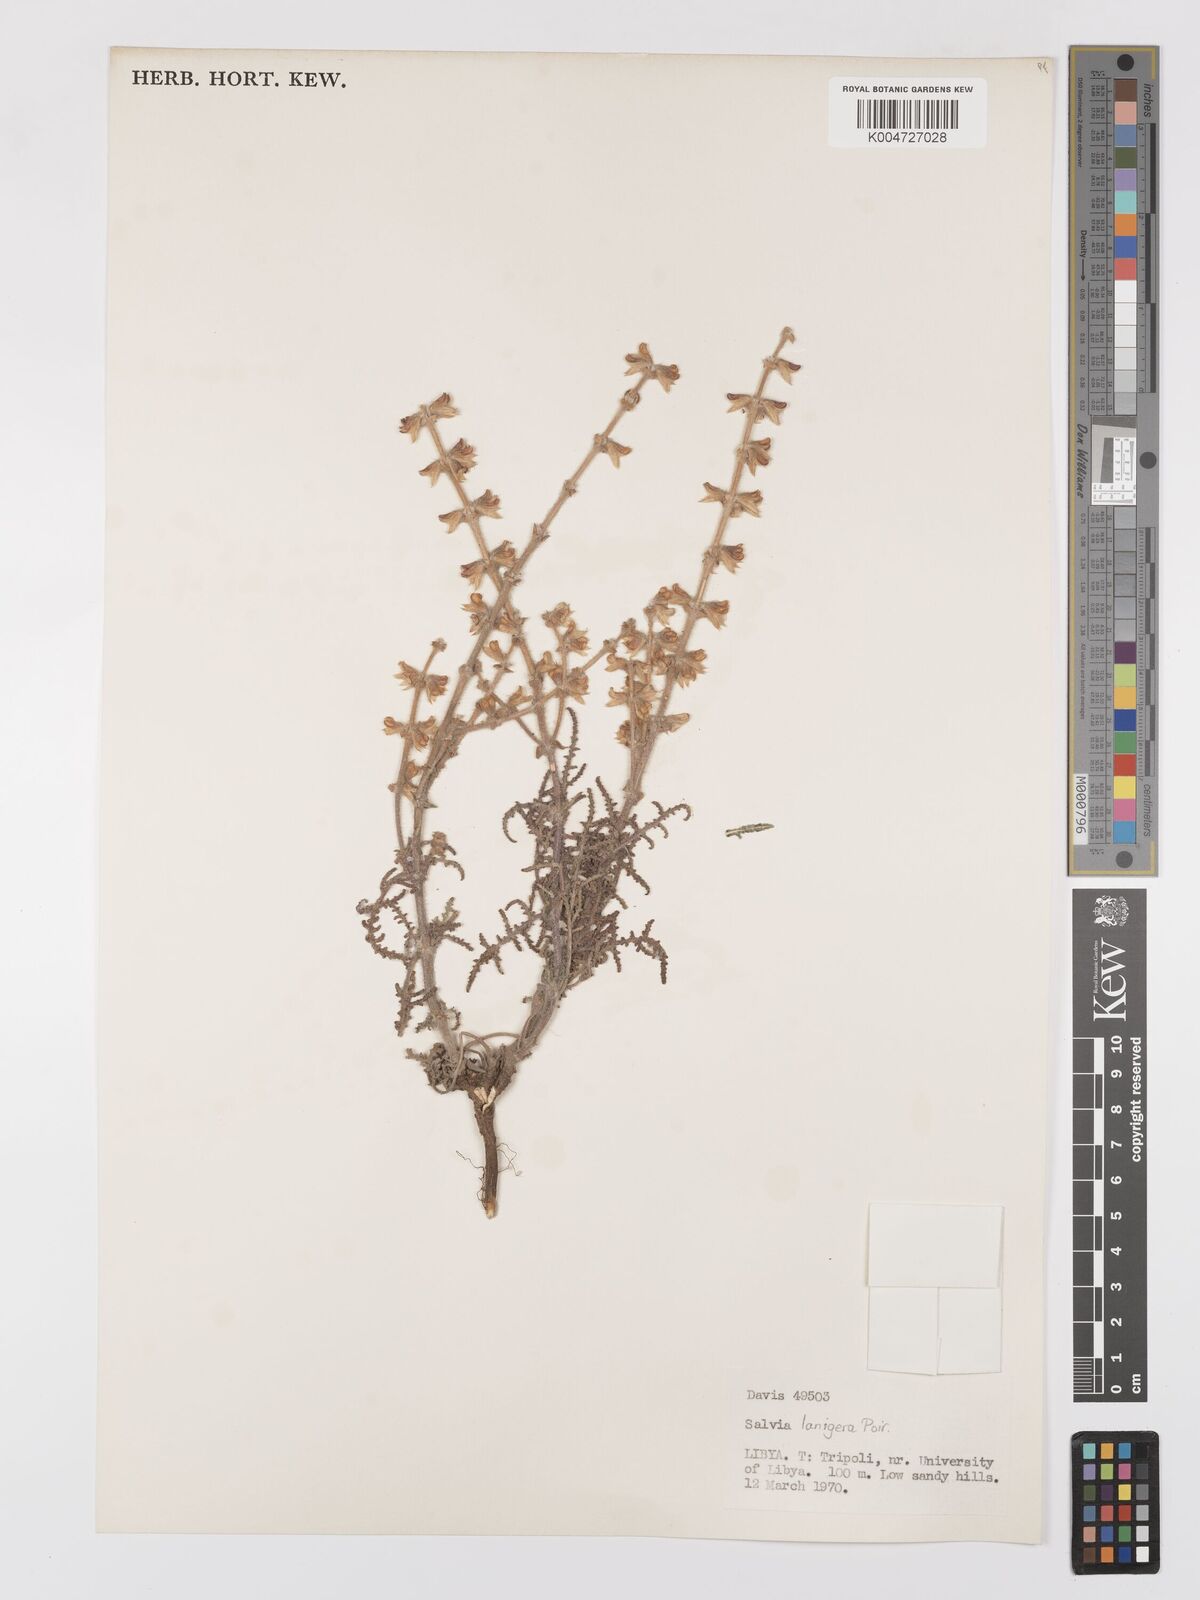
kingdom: Plantae
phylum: Tracheophyta
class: Magnoliopsida
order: Lamiales
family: Lamiaceae
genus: Salvia
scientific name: Salvia lanigera
